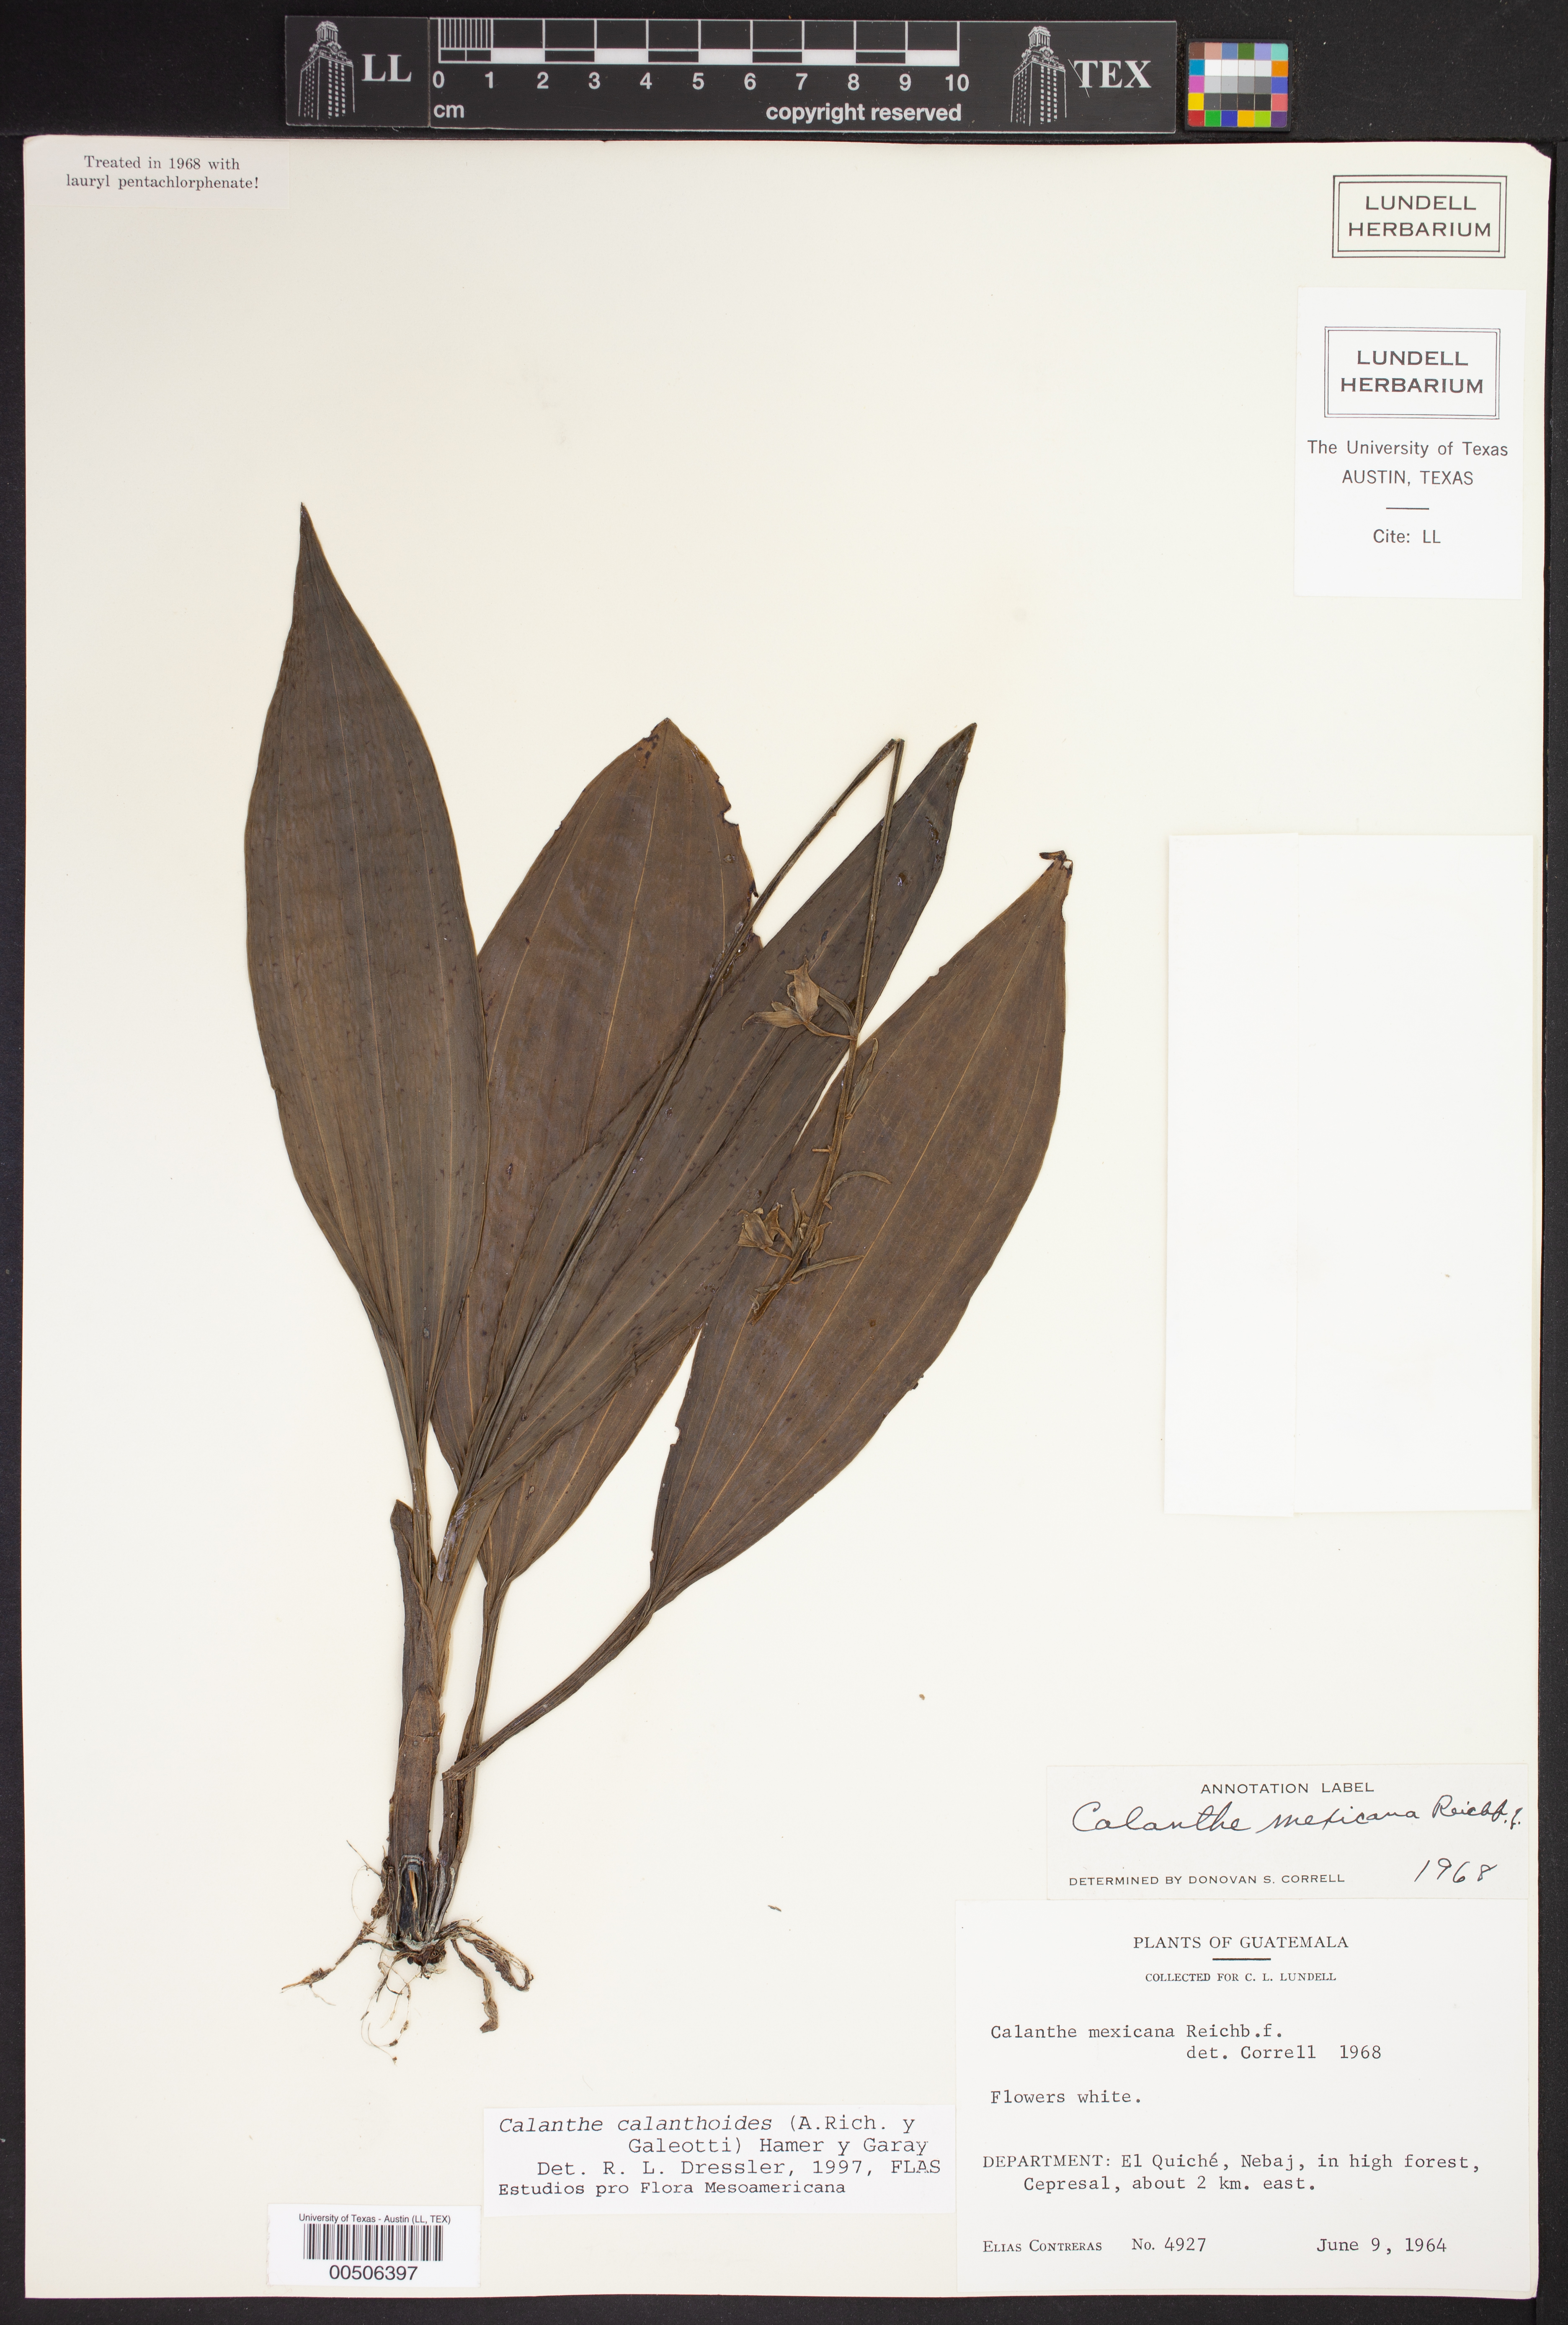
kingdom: Plantae
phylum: Tracheophyta
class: Liliopsida
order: Asparagales
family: Orchidaceae
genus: Calanthe
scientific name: Calanthe calanthoides
